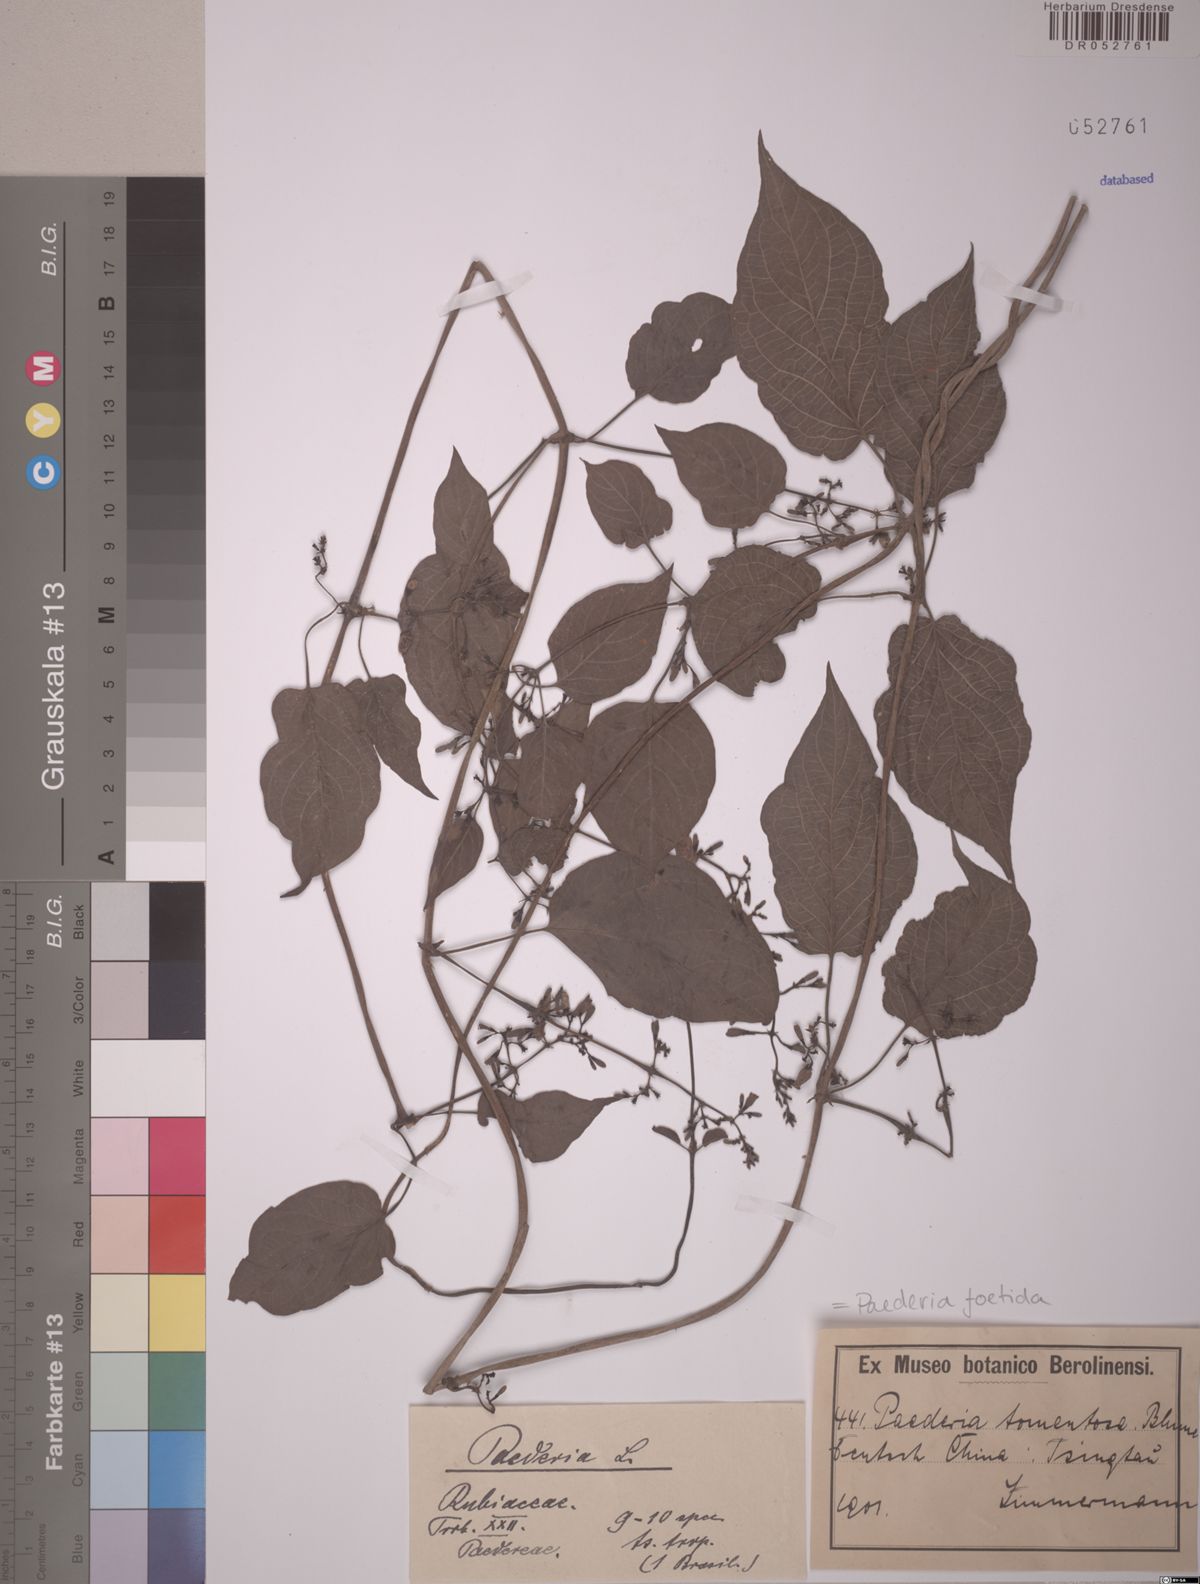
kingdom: Plantae
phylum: Tracheophyta
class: Magnoliopsida
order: Gentianales
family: Rubiaceae
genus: Paederia
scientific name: Paederia foetida
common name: Stinkvine
